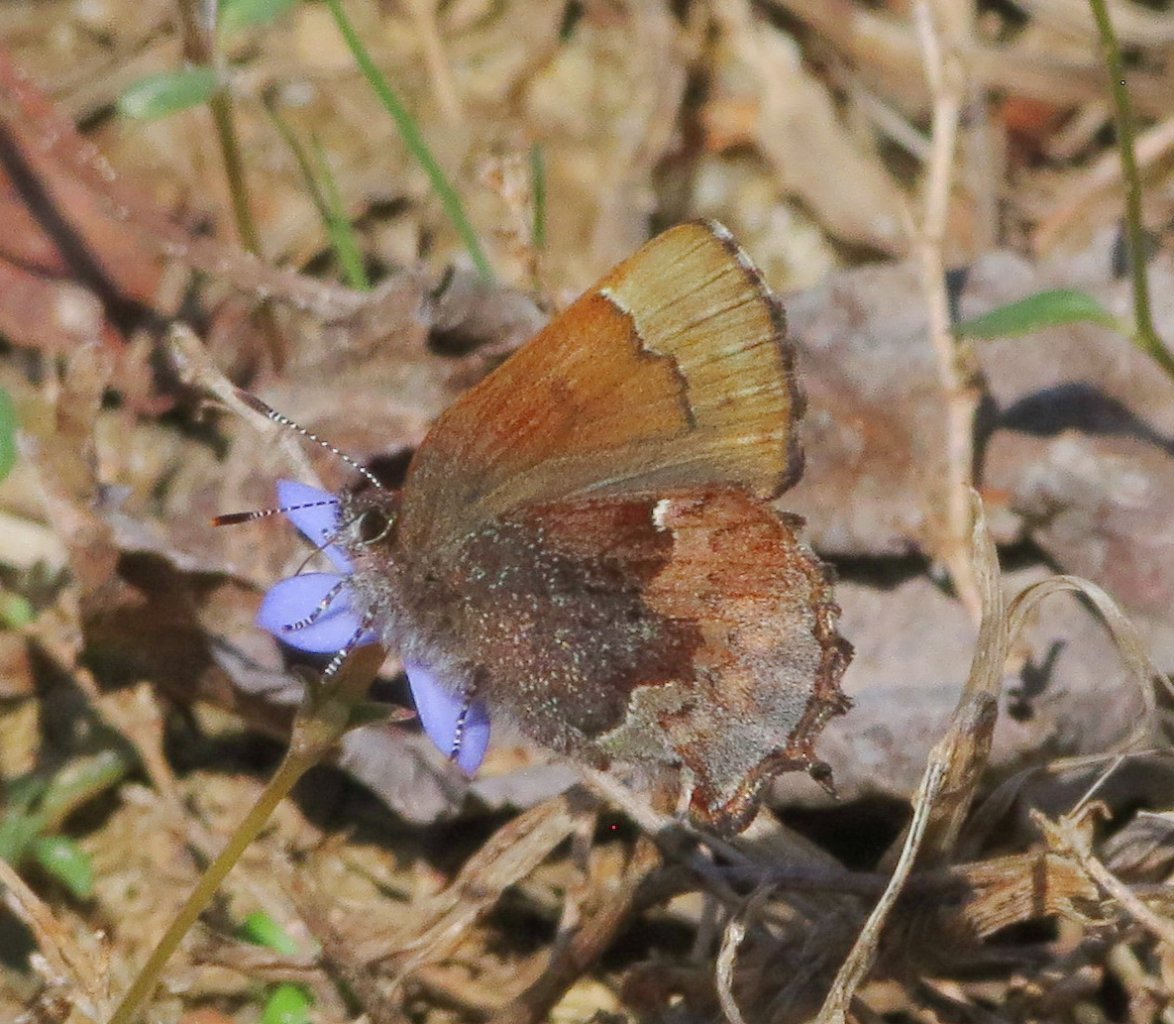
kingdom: Animalia
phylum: Arthropoda
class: Insecta
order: Lepidoptera
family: Lycaenidae
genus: Incisalia
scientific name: Incisalia henrici
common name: Henry's Elfin
